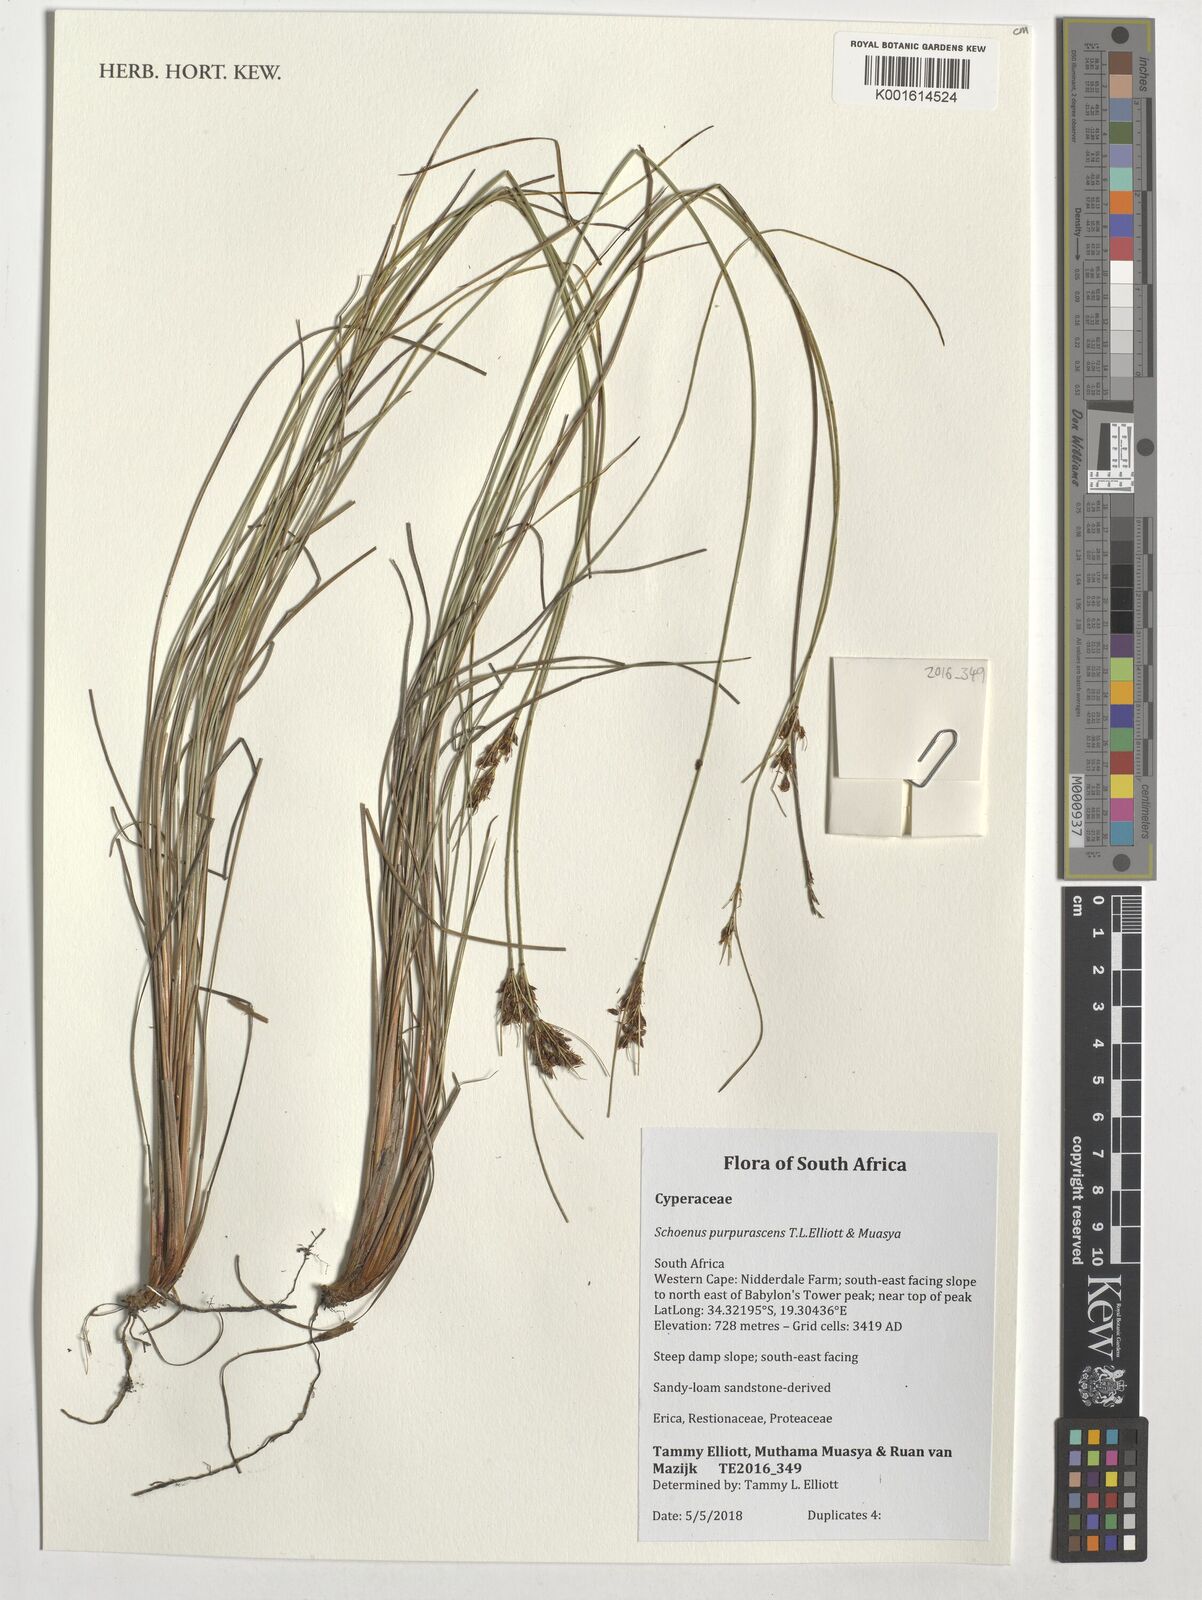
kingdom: Plantae
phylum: Tracheophyta
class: Liliopsida
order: Poales
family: Cyperaceae
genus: Schoenus
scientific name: Schoenus purpurascens
